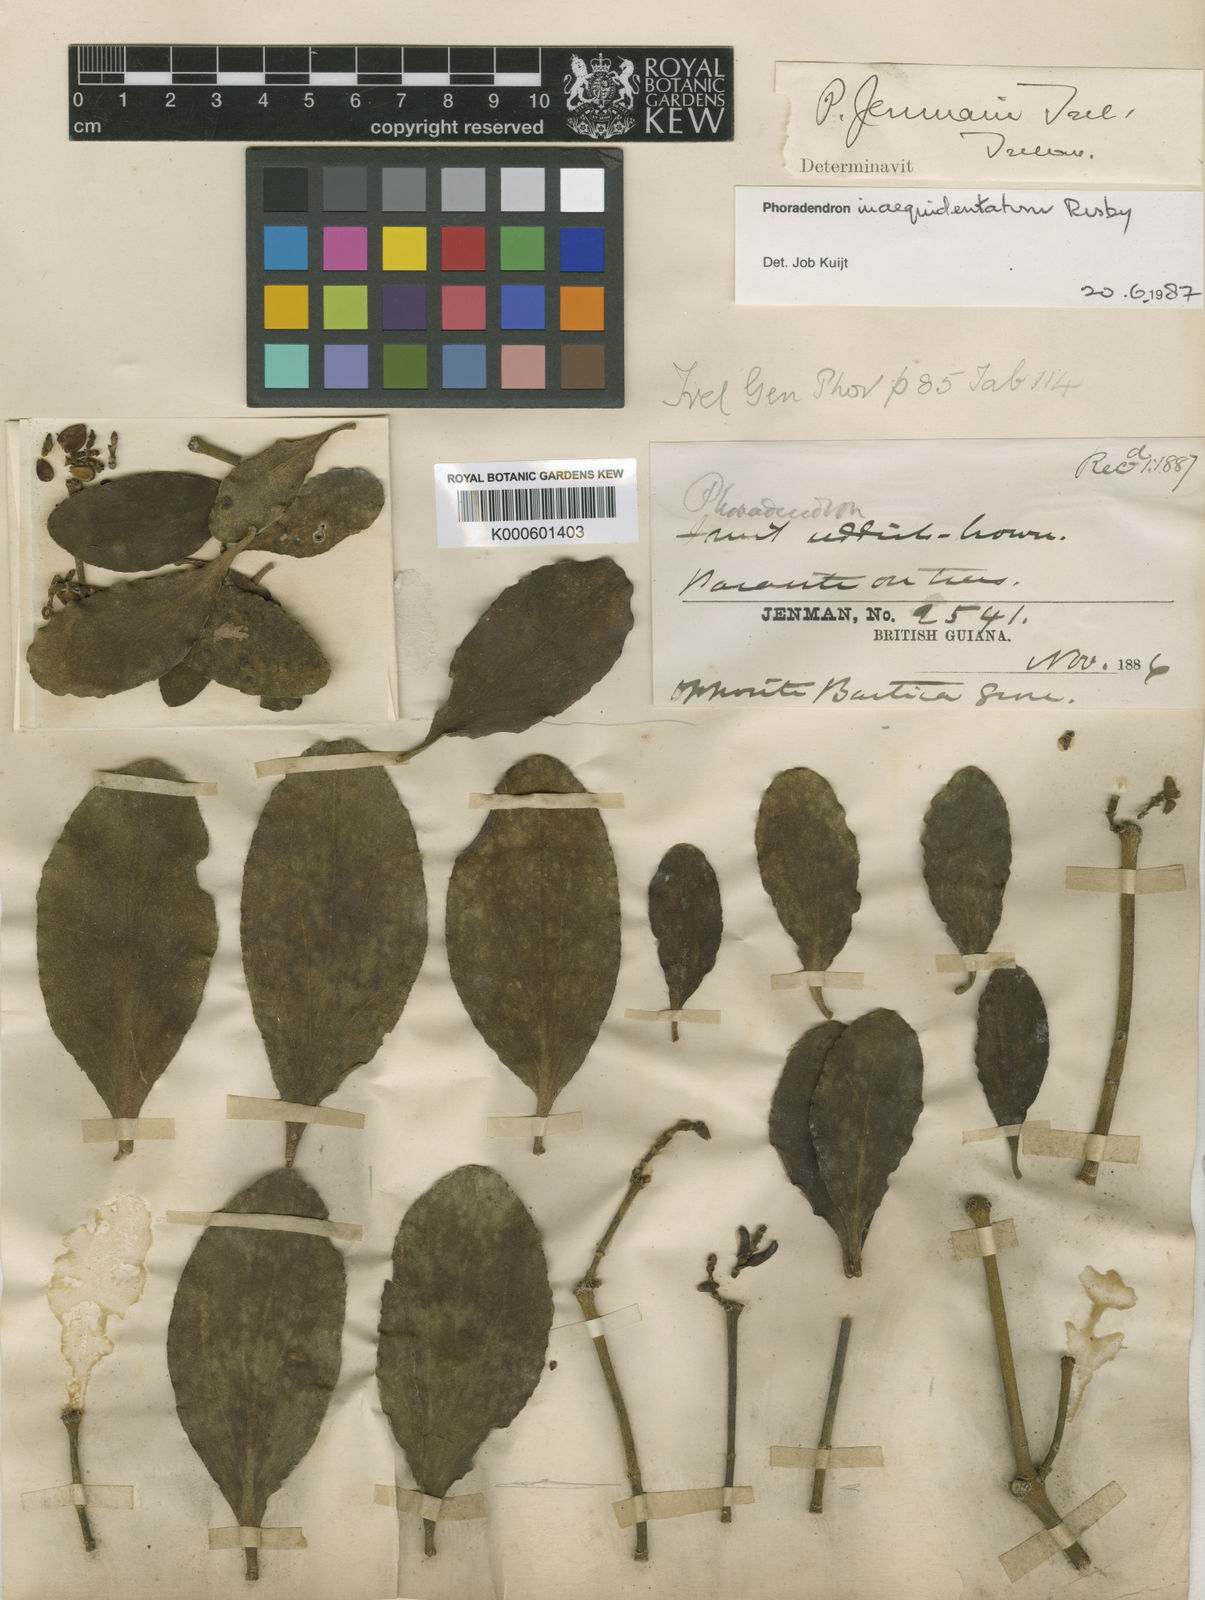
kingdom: Plantae
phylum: Tracheophyta
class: Magnoliopsida
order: Santalales
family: Viscaceae
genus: Phoradendron
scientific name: Phoradendron inaequidentatum
